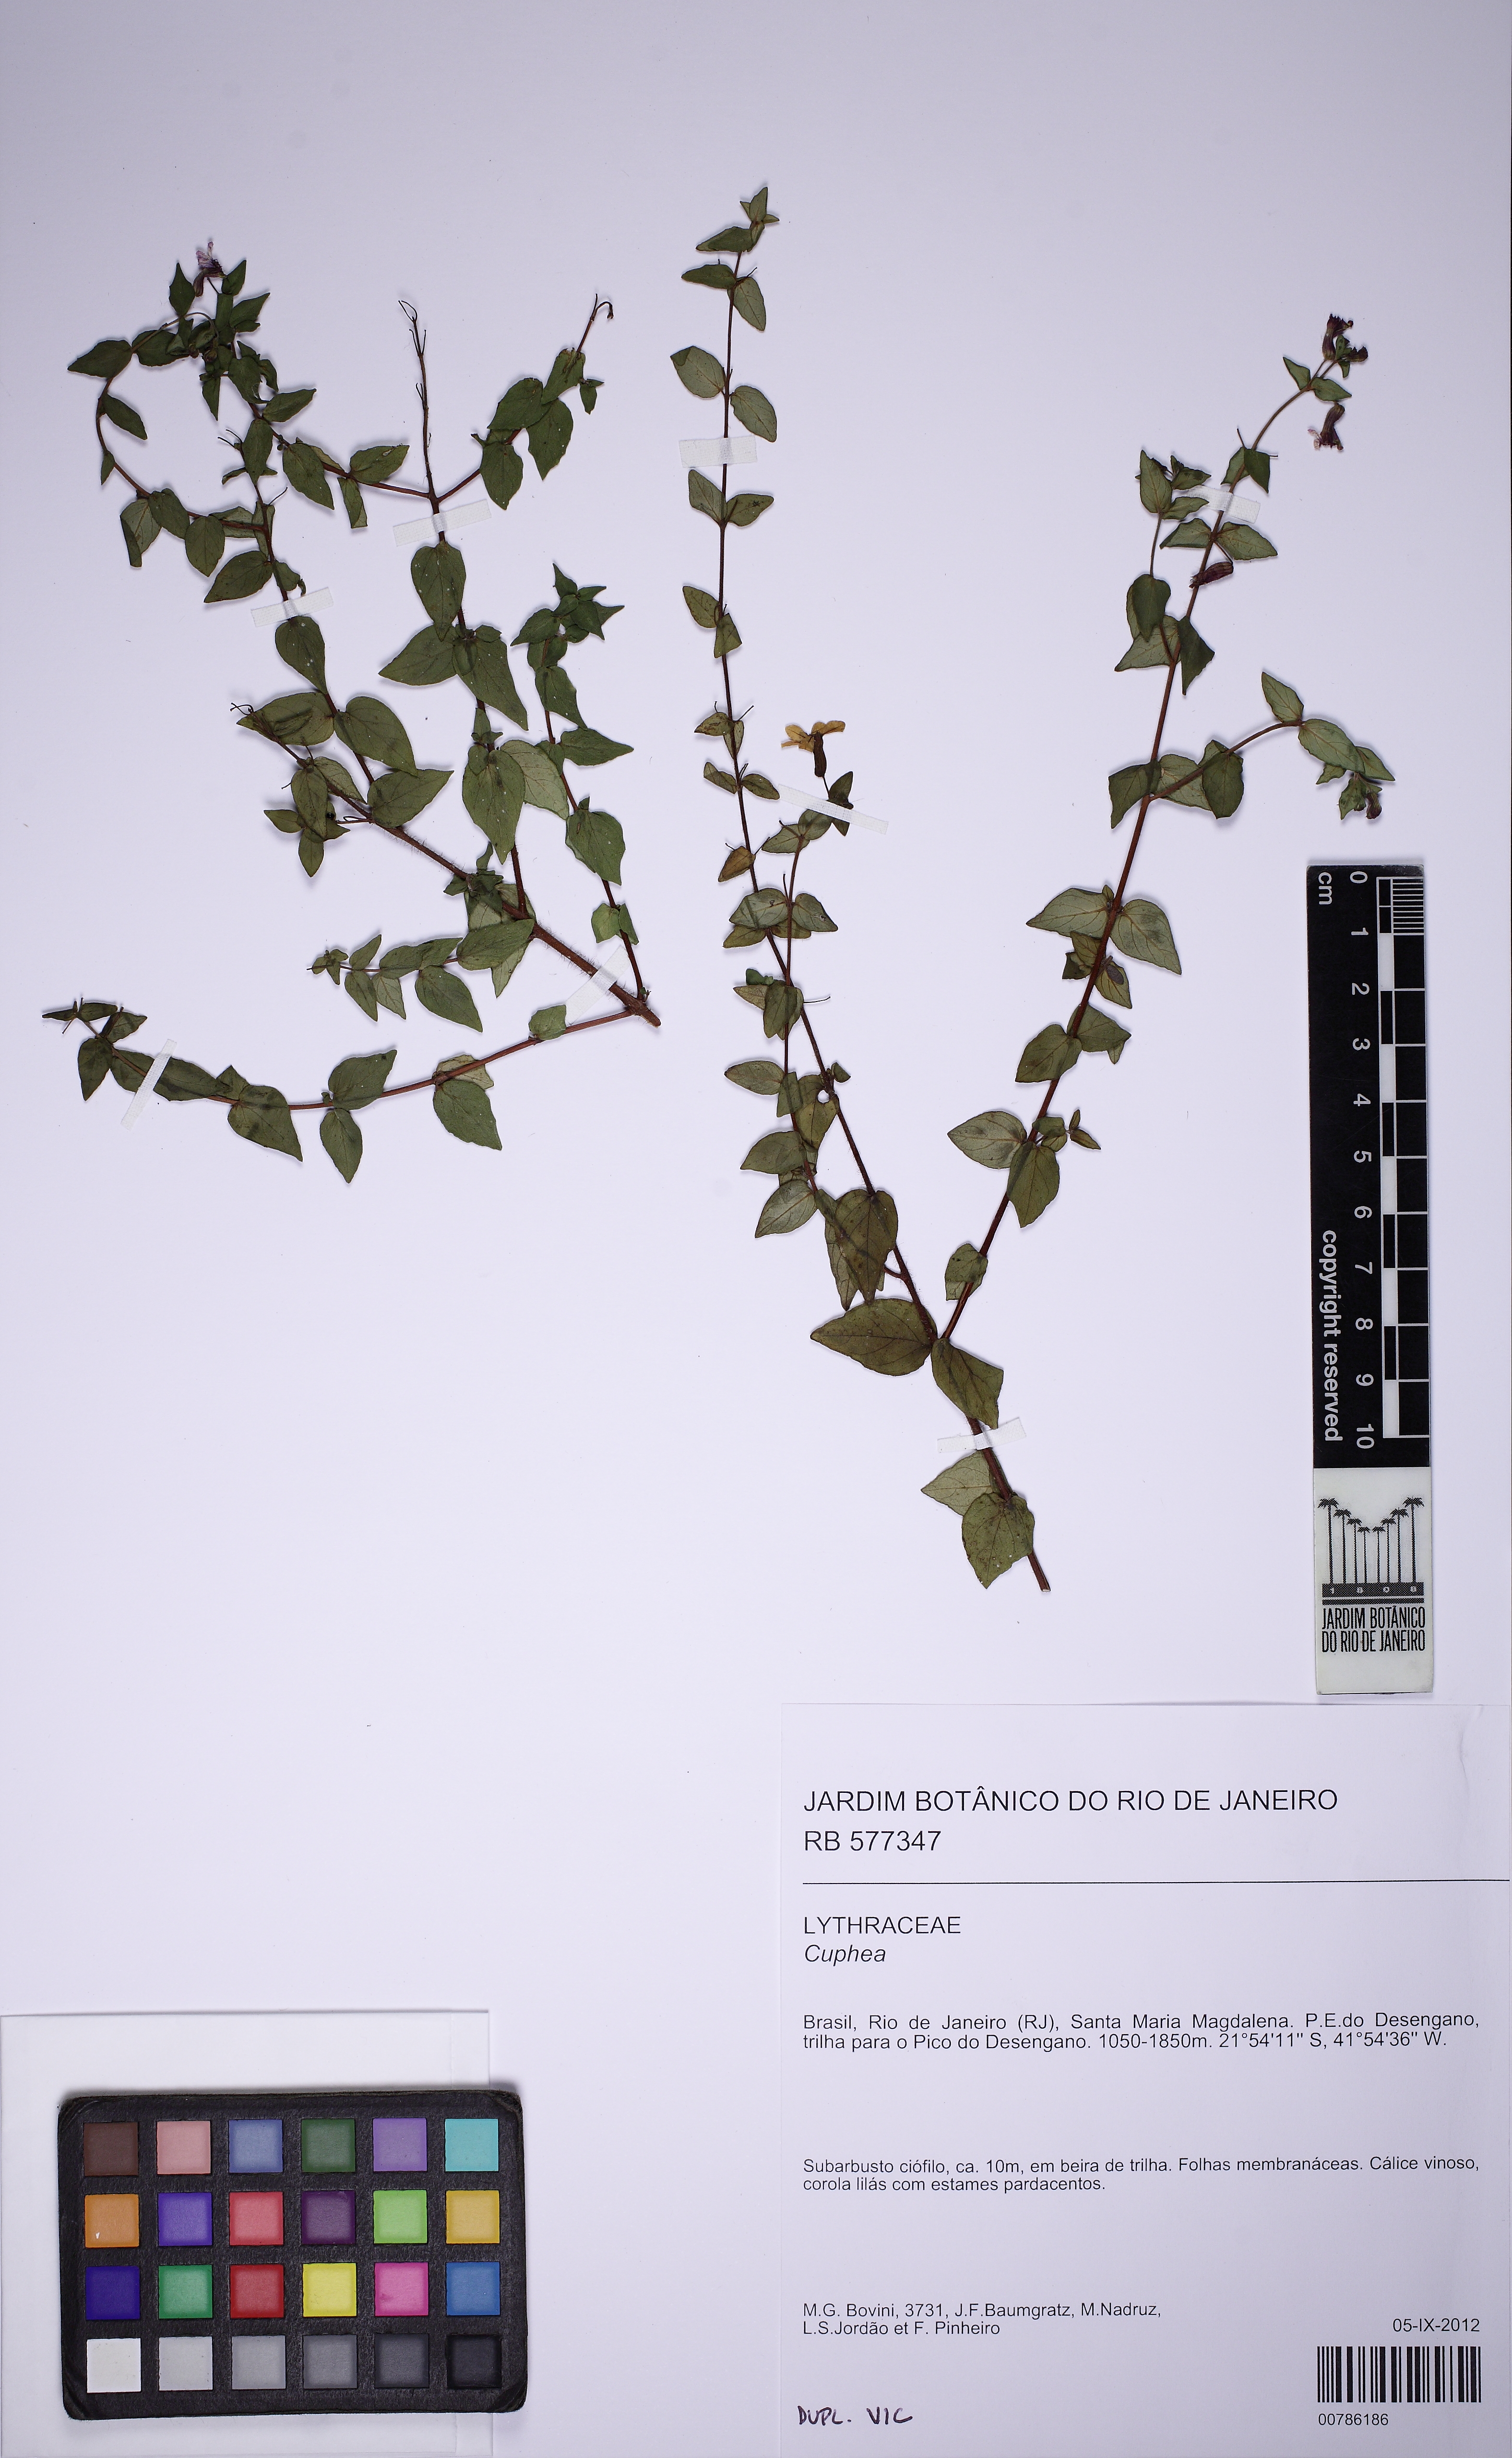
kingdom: Plantae
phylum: Tracheophyta
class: Magnoliopsida
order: Myrtales
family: Lythraceae
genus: Cuphea
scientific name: Cuphea
